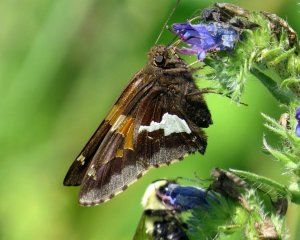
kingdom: Animalia
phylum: Arthropoda
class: Insecta
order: Lepidoptera
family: Hesperiidae
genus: Epargyreus
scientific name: Epargyreus clarus
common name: Silver-spotted Skipper
